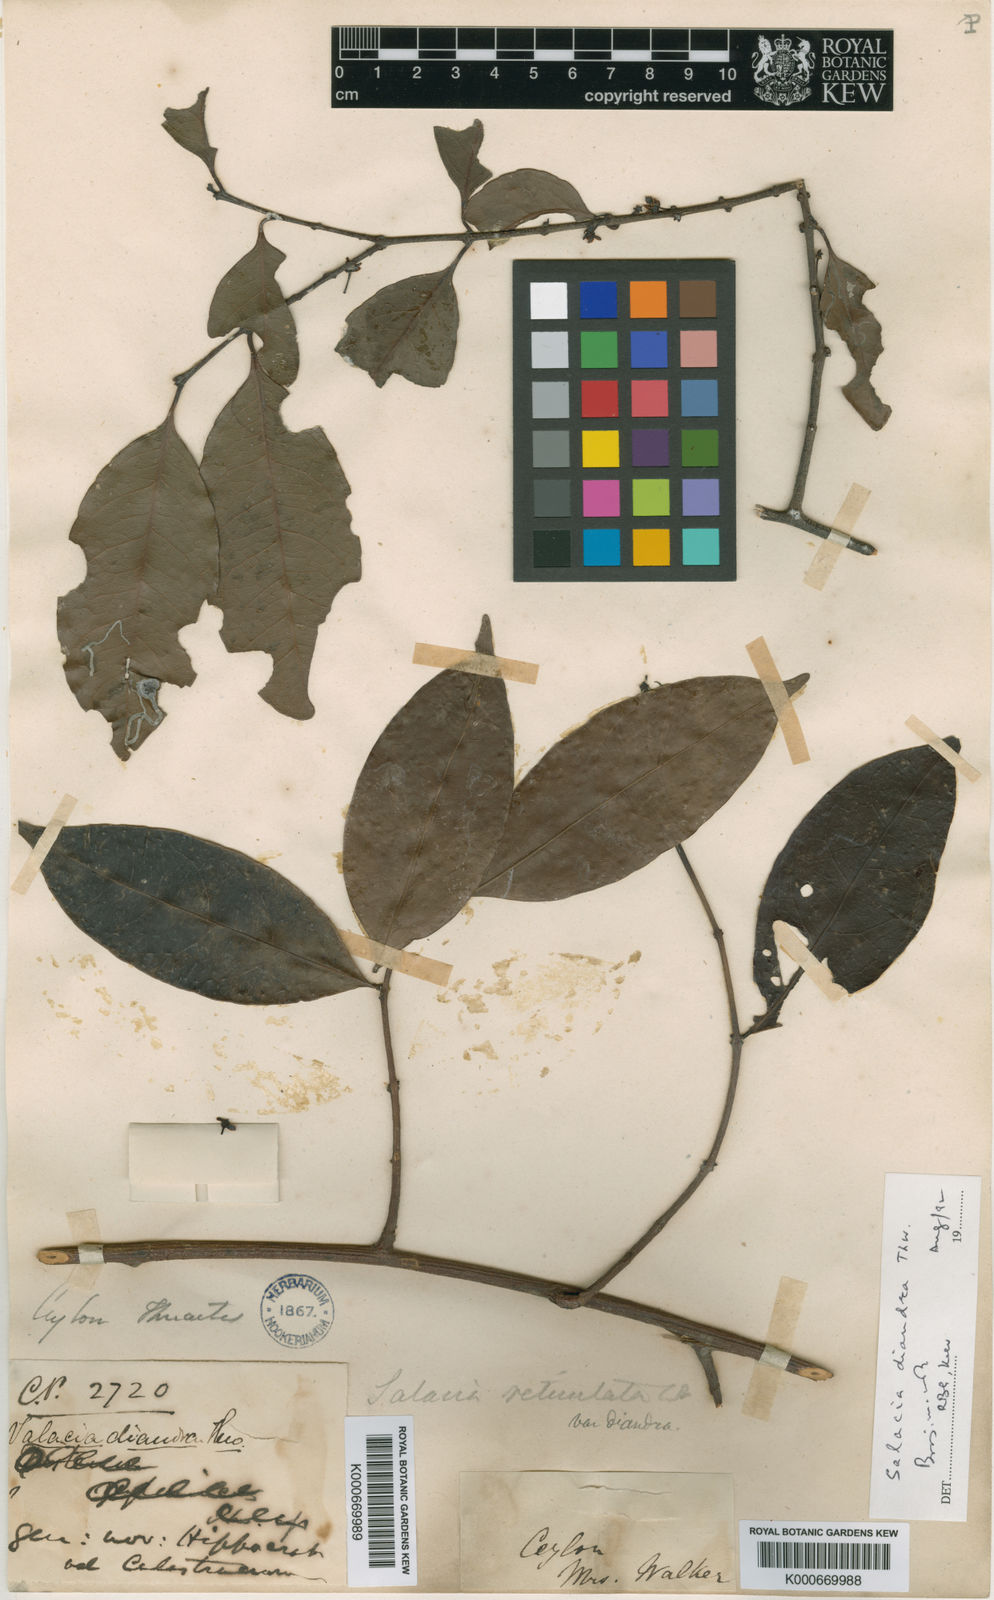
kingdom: Plantae
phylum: Tracheophyta
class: Magnoliopsida
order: Celastrales
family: Celastraceae
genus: Salacia
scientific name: Salacia reticulata
